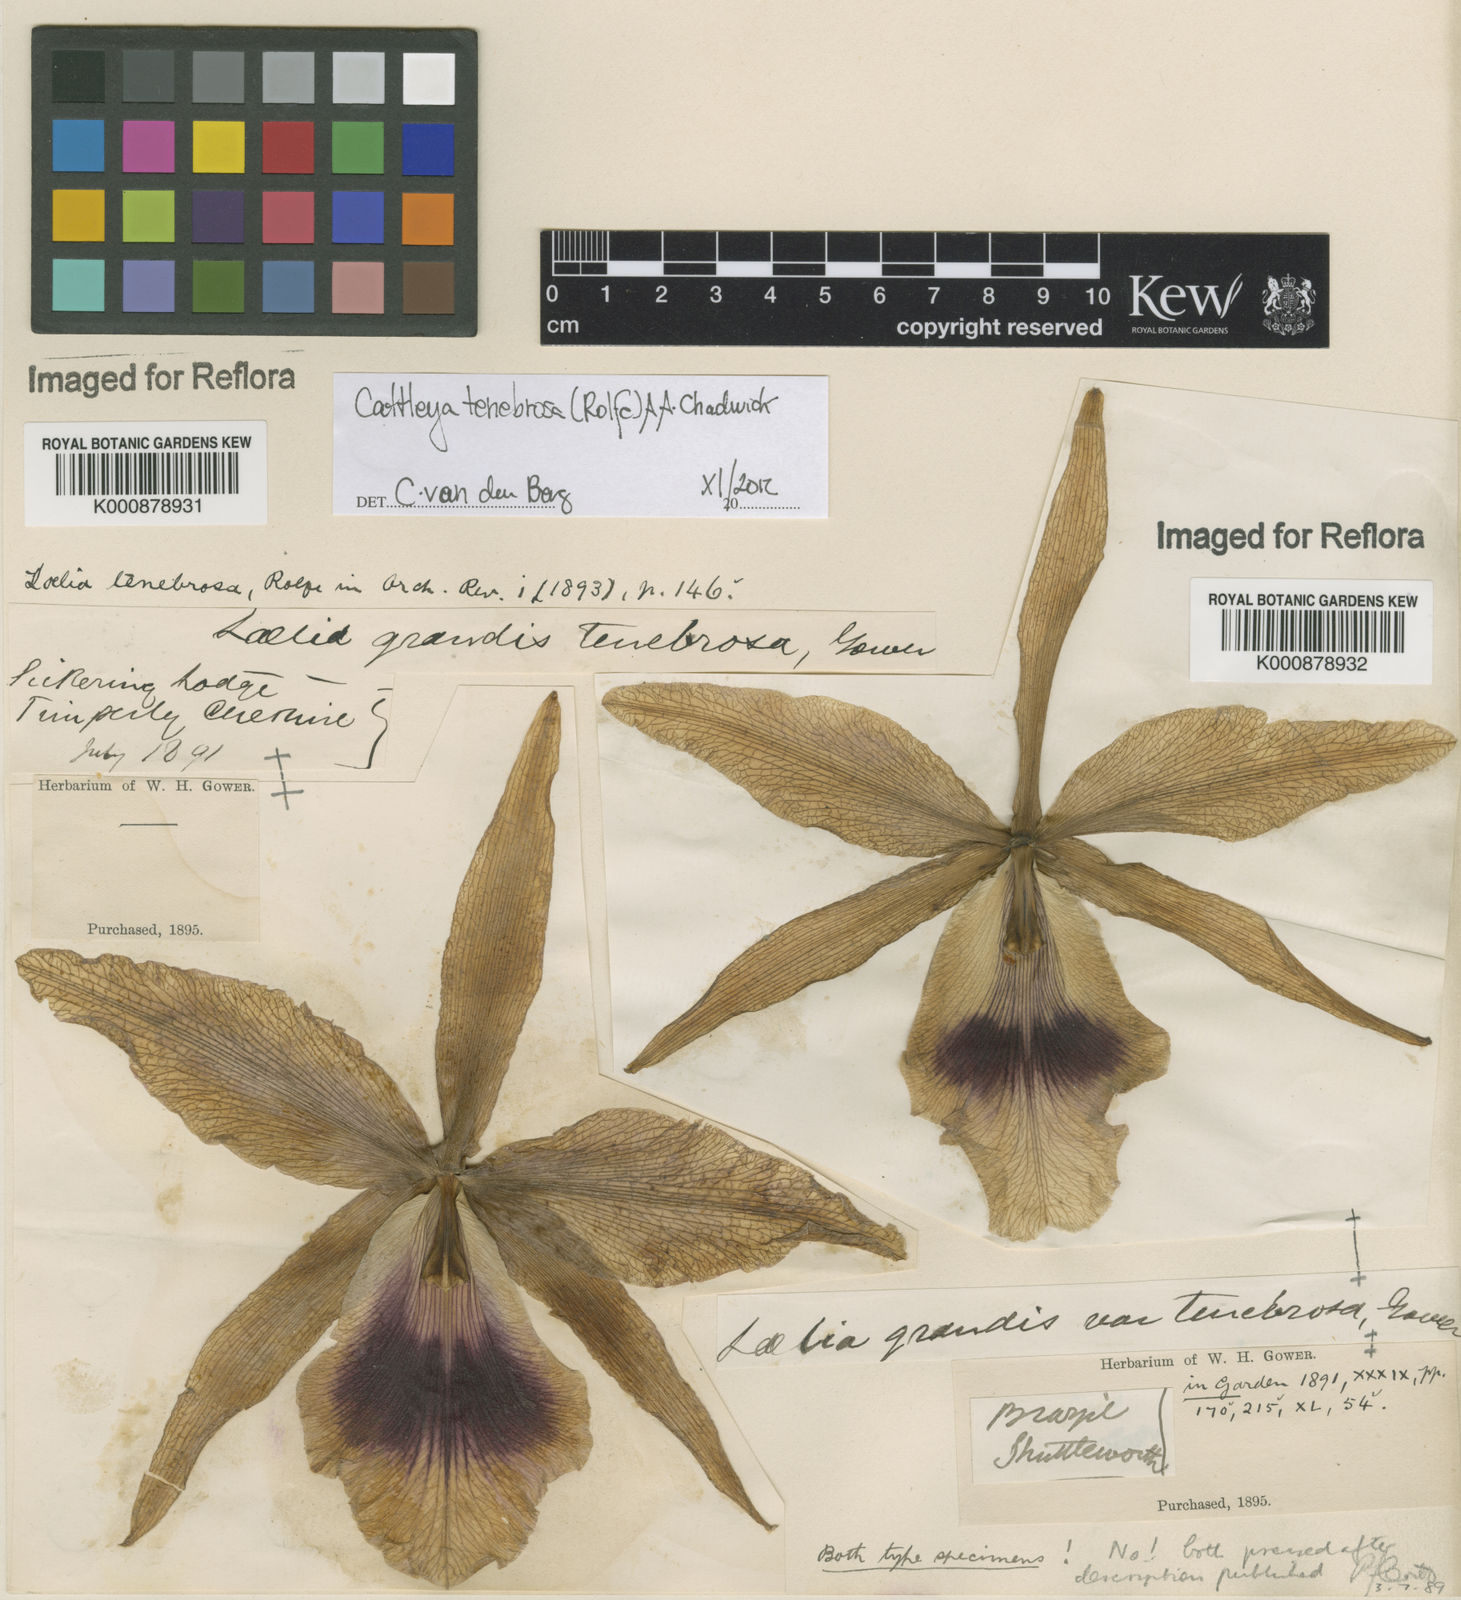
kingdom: Plantae
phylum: Tracheophyta
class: Liliopsida
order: Asparagales
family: Orchidaceae
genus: Cattleya
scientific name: Cattleya tenebrosa
